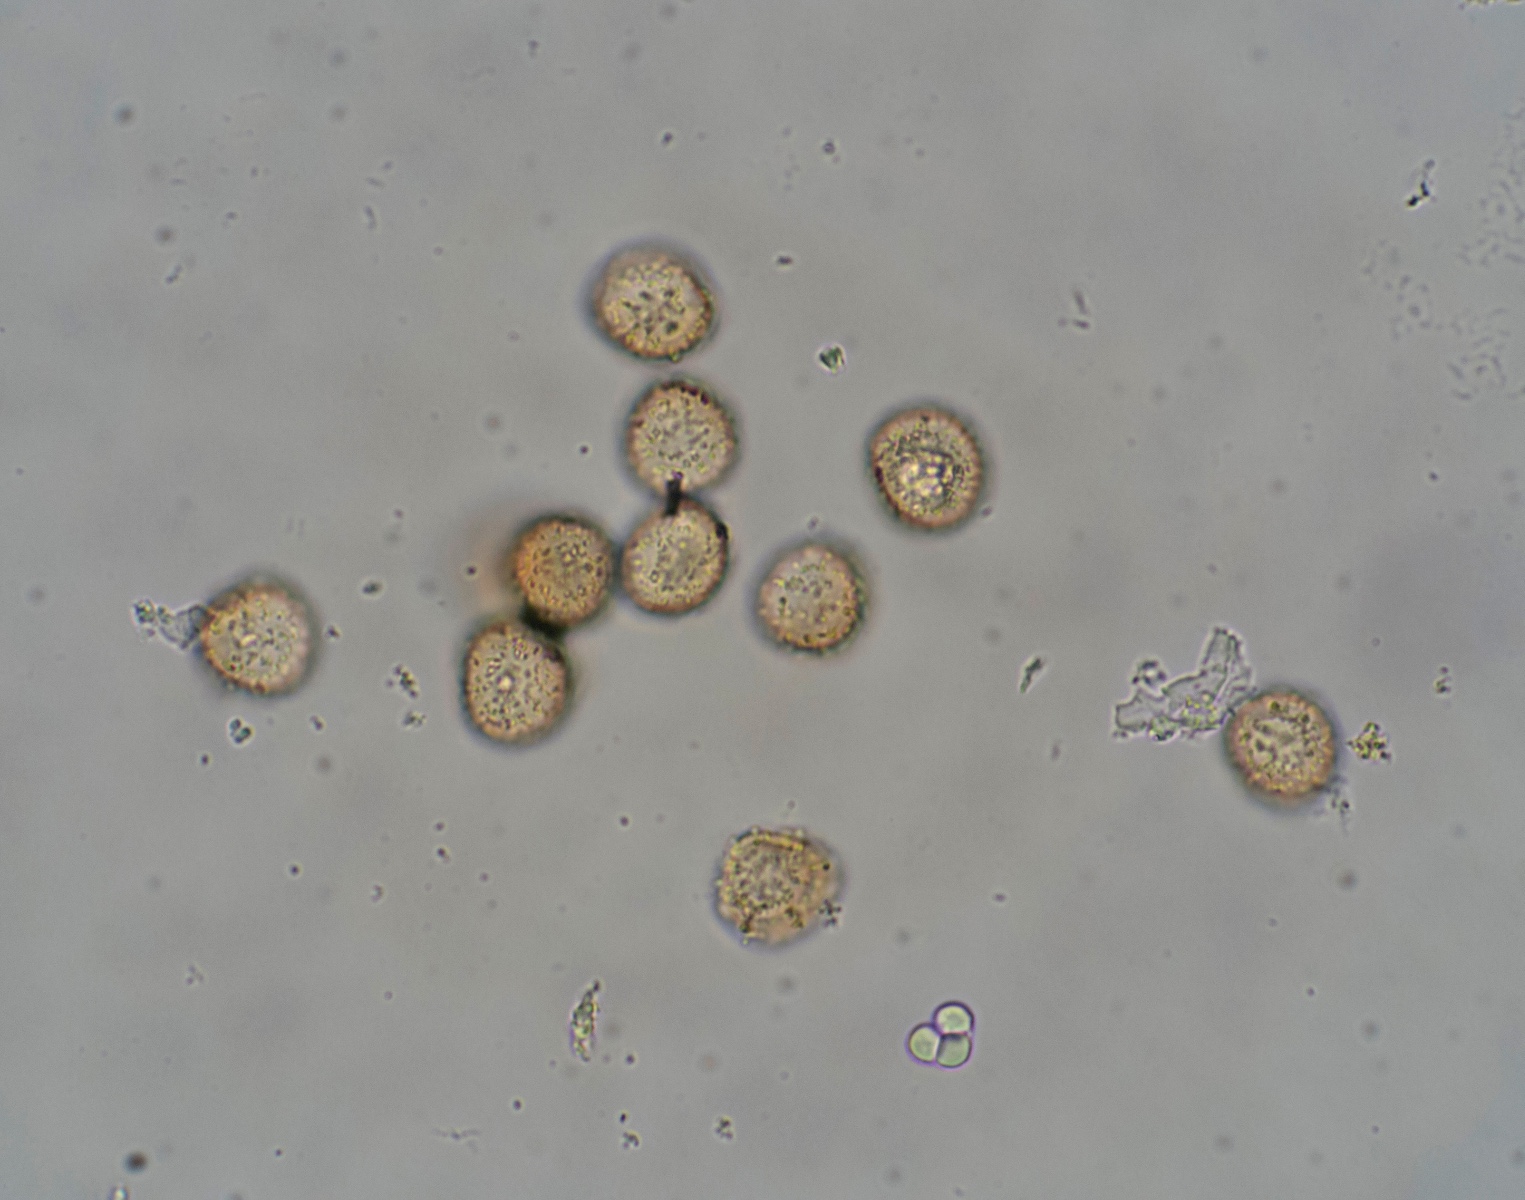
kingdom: Protozoa
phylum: Mycetozoa
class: Myxomycetes
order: Trichiales
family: Trichiaceae
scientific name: Trichiaceae
